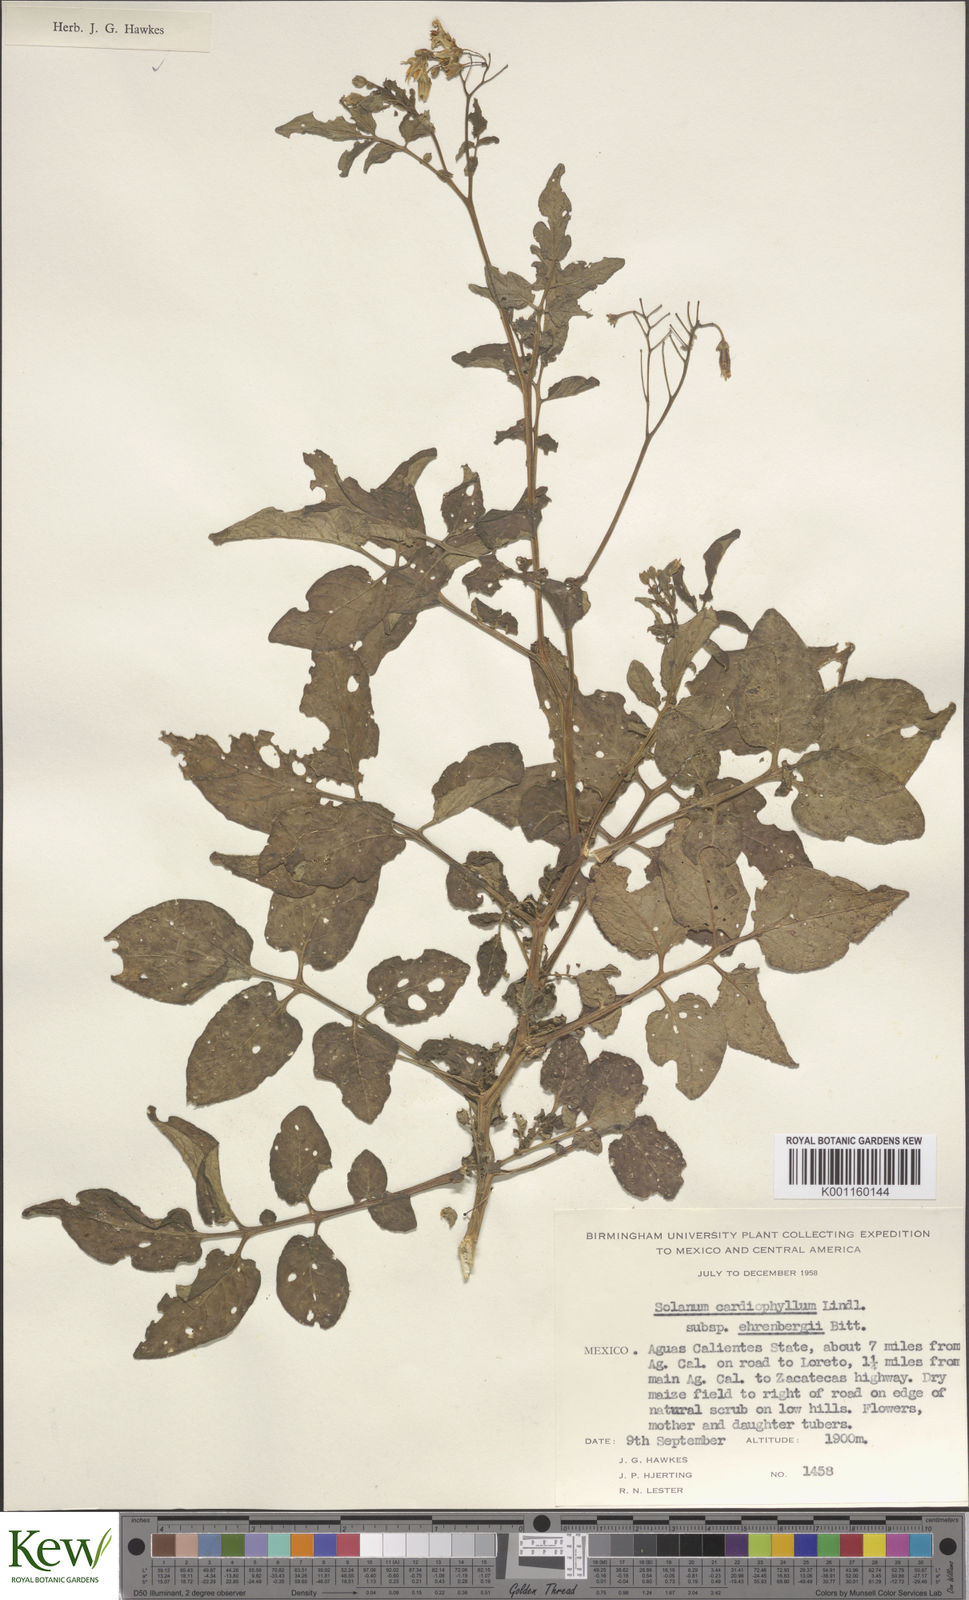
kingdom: Plantae
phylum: Tracheophyta
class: Magnoliopsida
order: Solanales
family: Solanaceae
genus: Solanum
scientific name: Solanum cardiophyllum
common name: Heartleaf horsenettle
